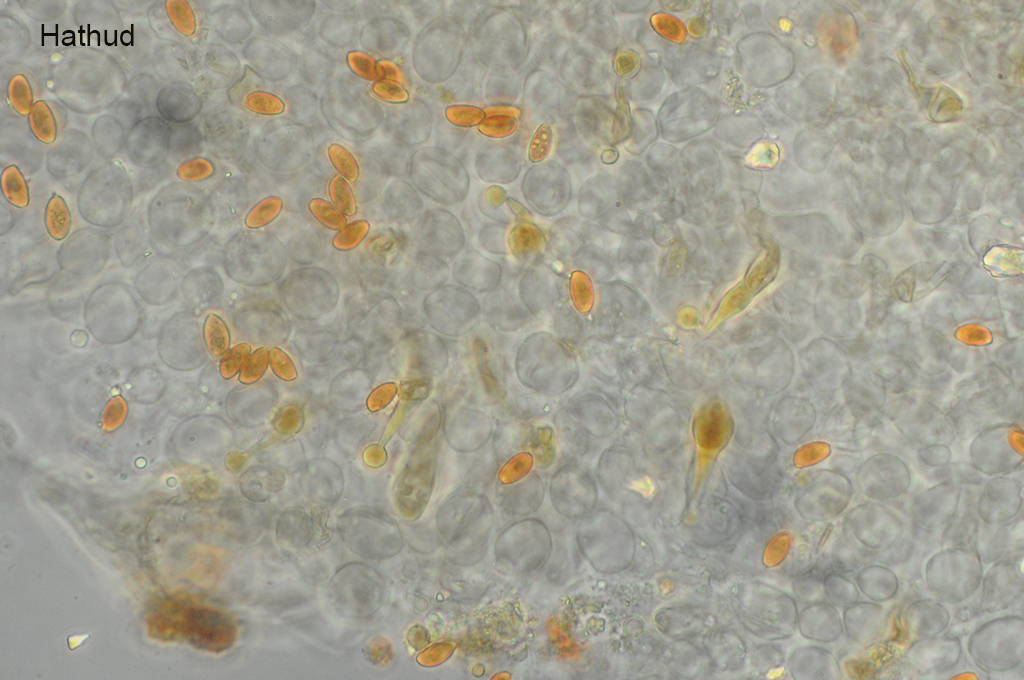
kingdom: Fungi
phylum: Basidiomycota
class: Agaricomycetes
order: Agaricales
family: Bolbitiaceae
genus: Conocybe
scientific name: Conocybe mesospora
